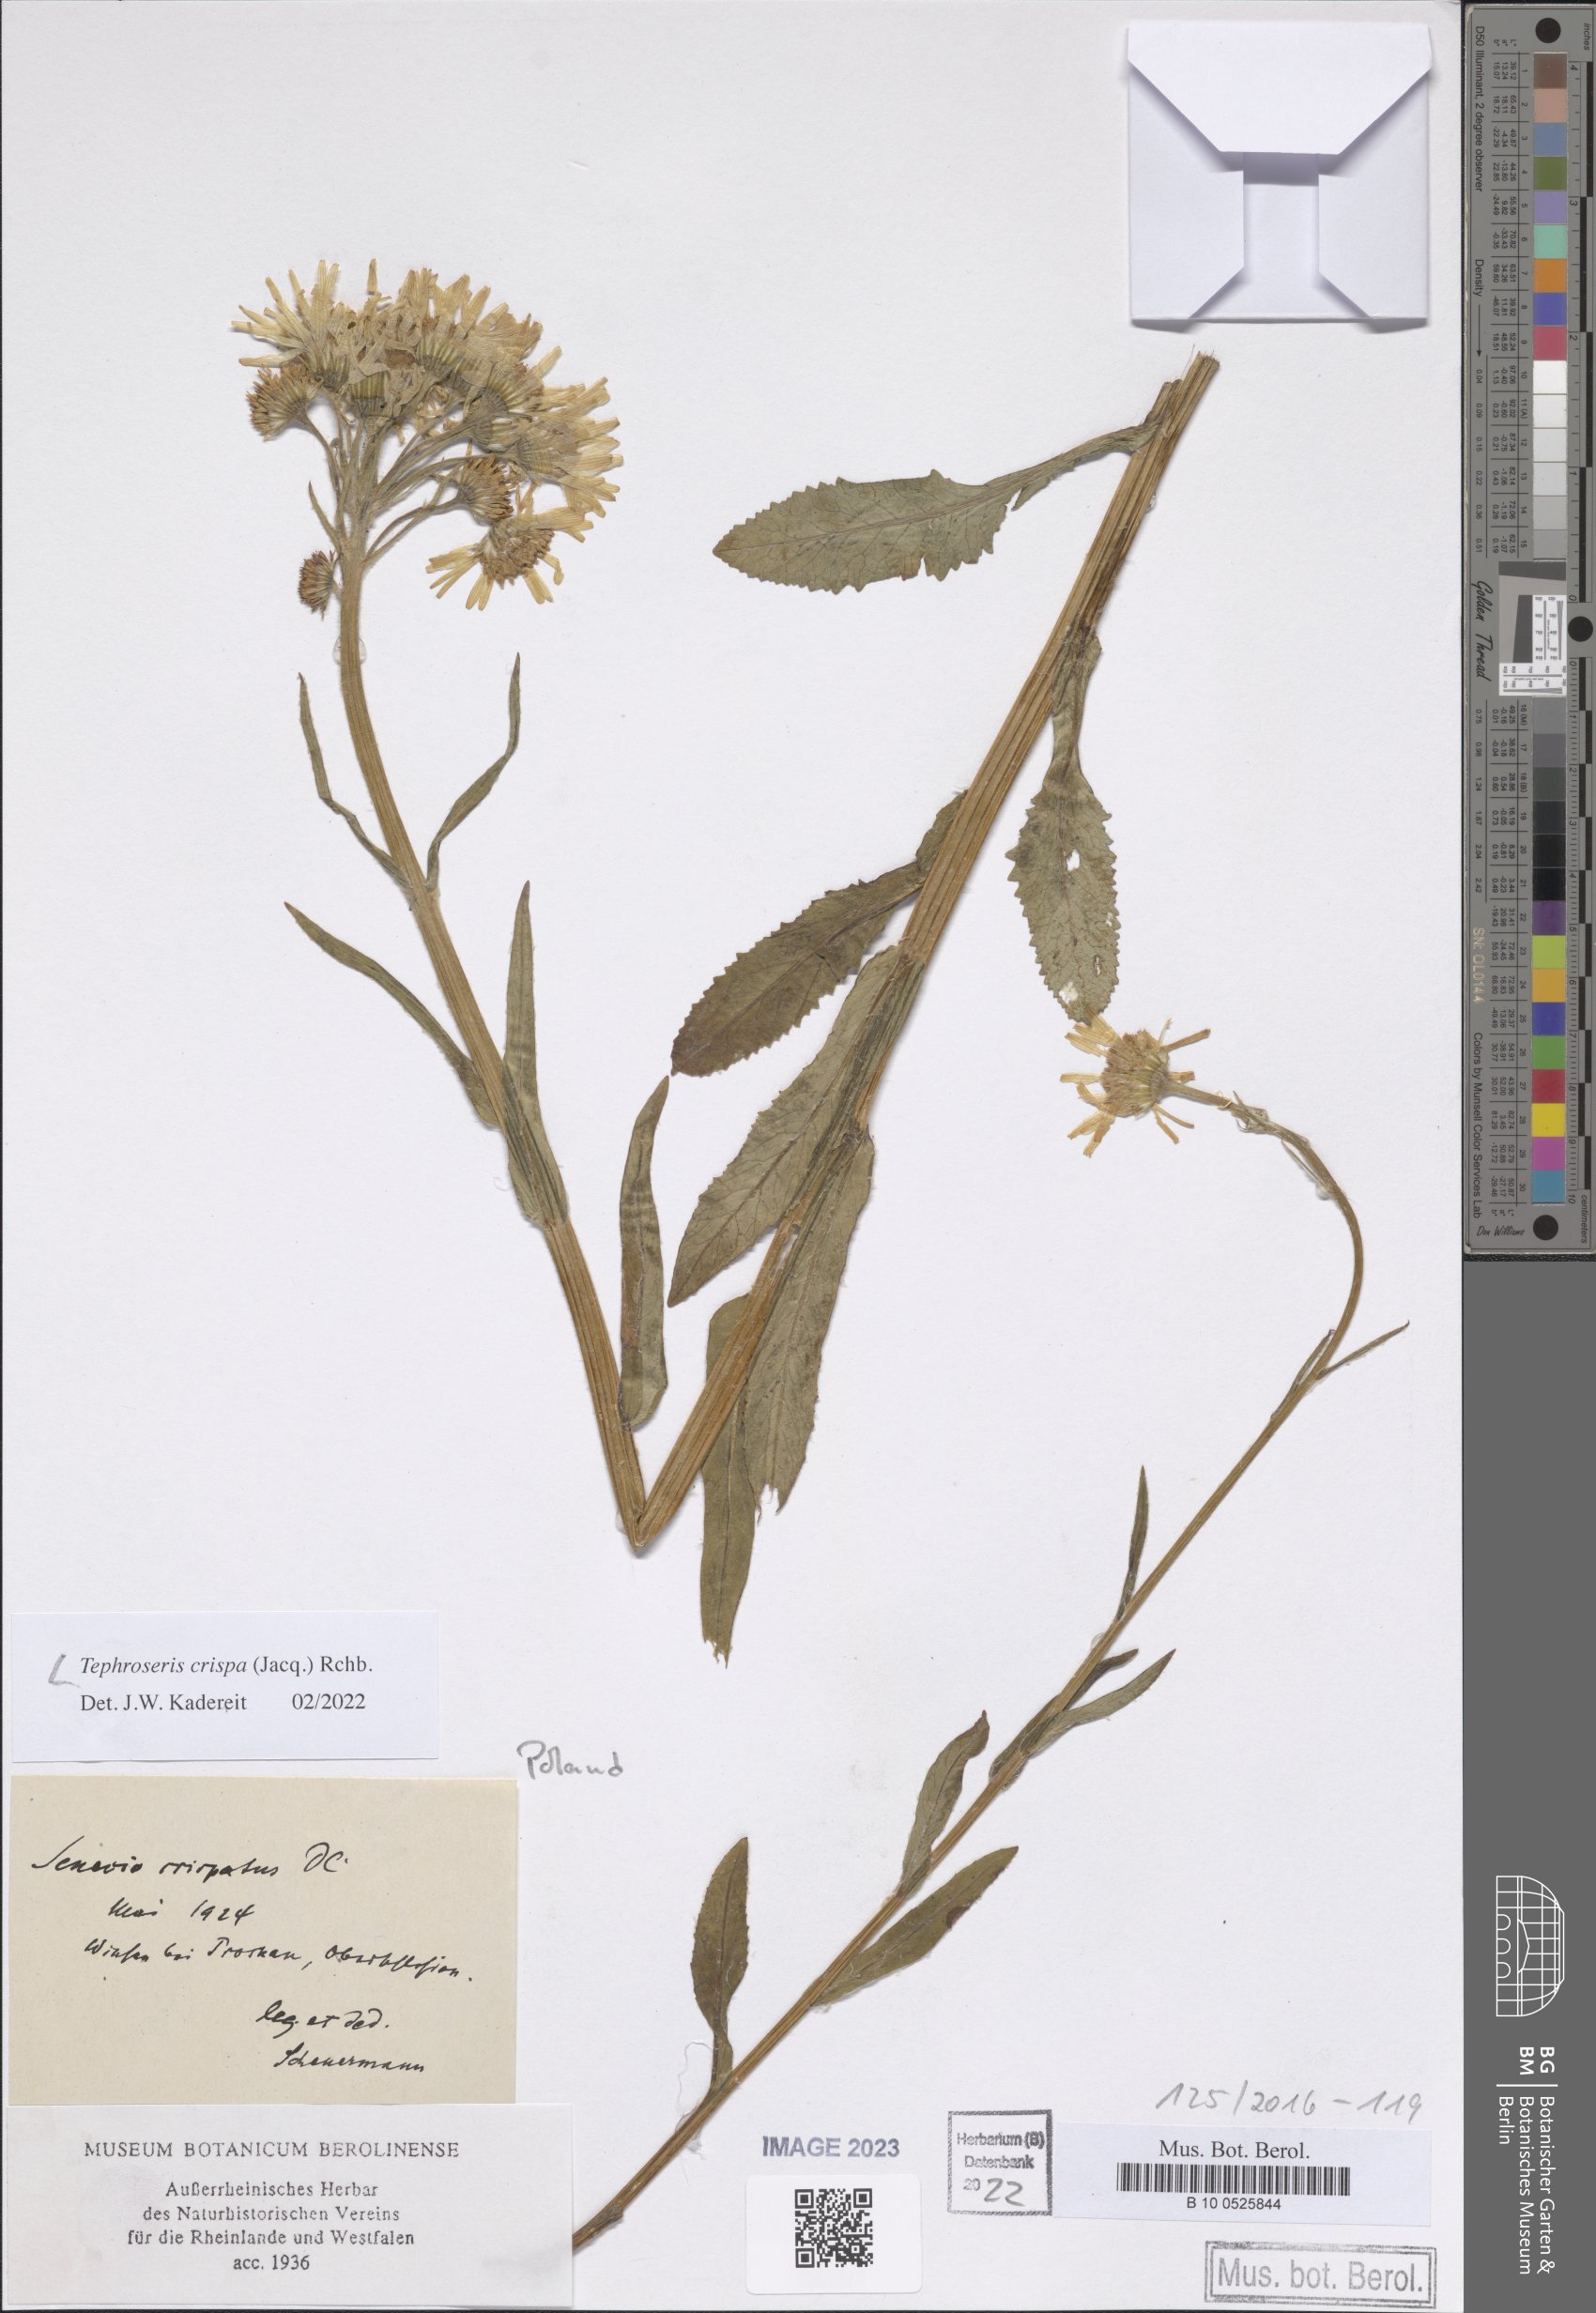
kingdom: Plantae
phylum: Tracheophyta
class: Magnoliopsida
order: Asterales
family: Asteraceae
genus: Tephroseris
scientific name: Tephroseris crispa
